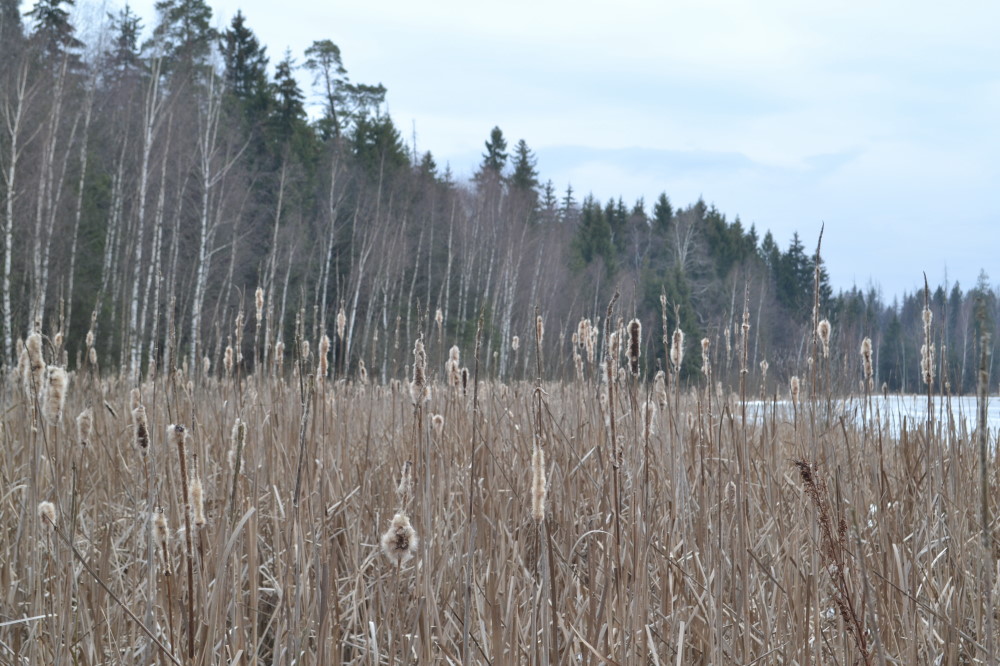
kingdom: Plantae
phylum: Tracheophyta
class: Liliopsida
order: Poales
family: Typhaceae
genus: Typha
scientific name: Typha
